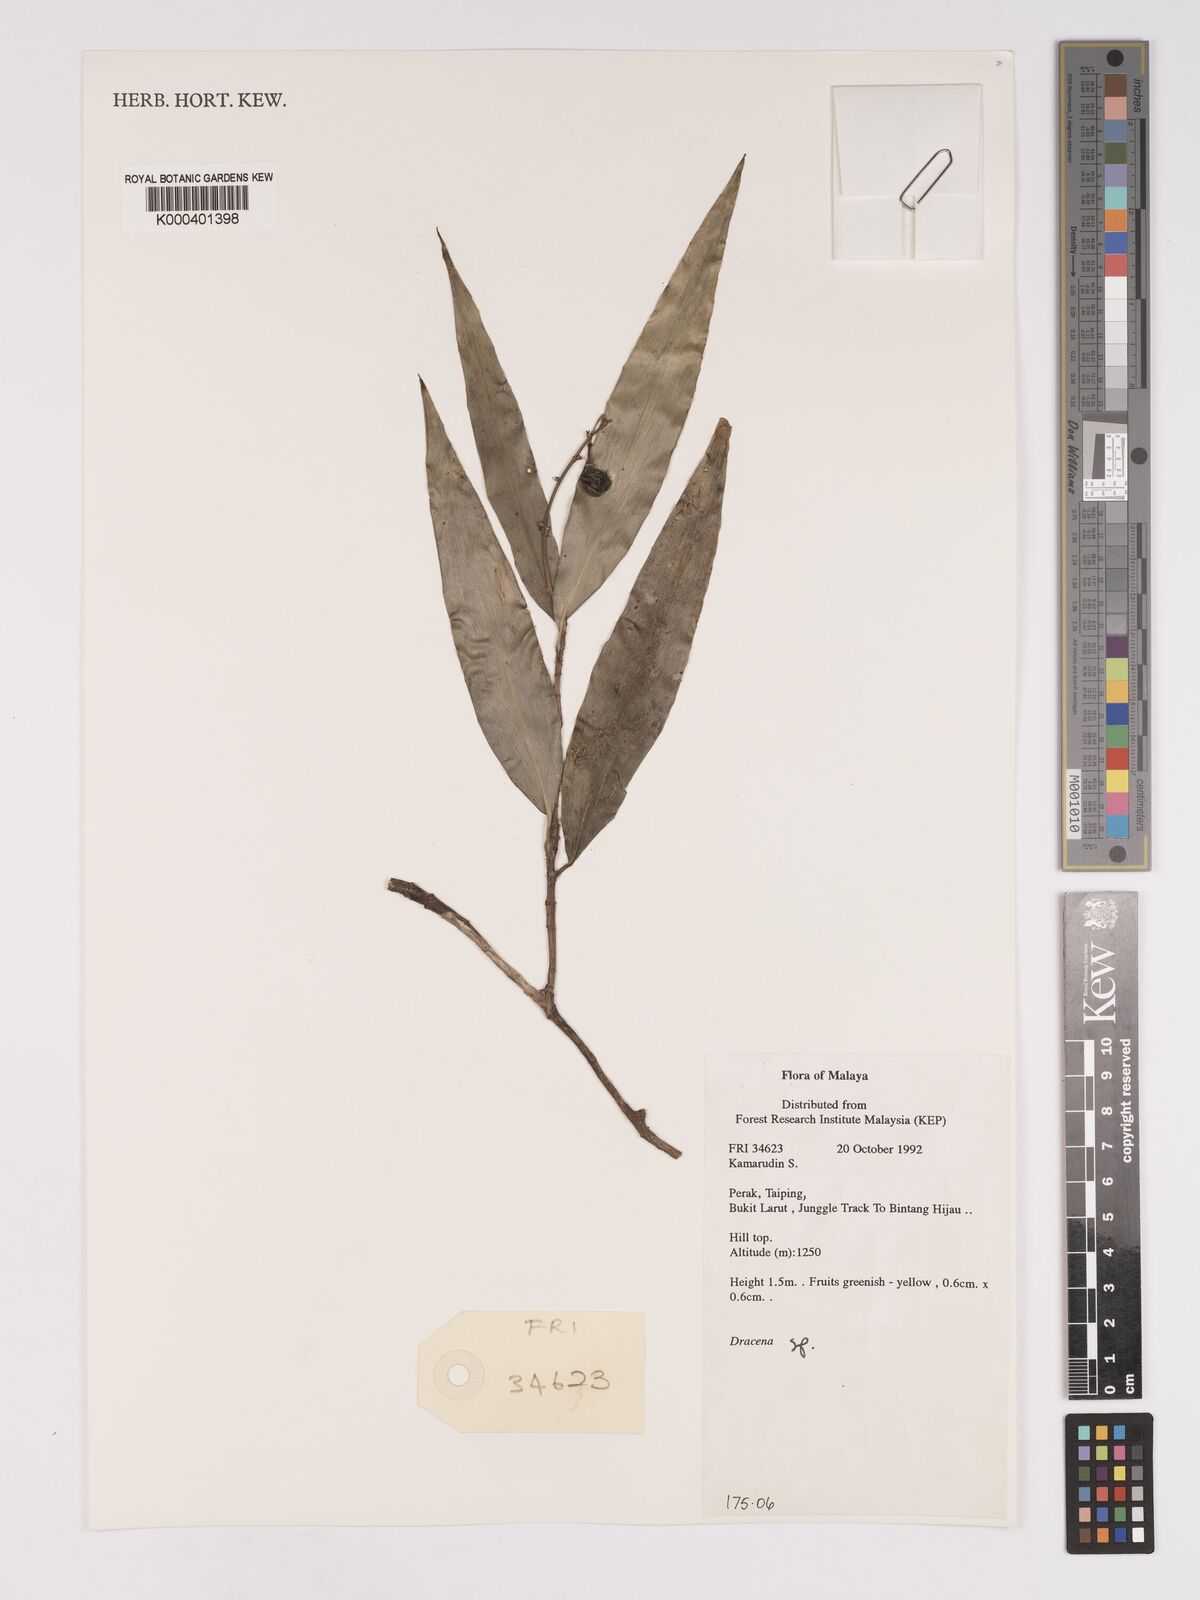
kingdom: Plantae
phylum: Tracheophyta
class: Liliopsida
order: Asparagales
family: Asparagaceae
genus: Dracaena
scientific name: Dracaena
